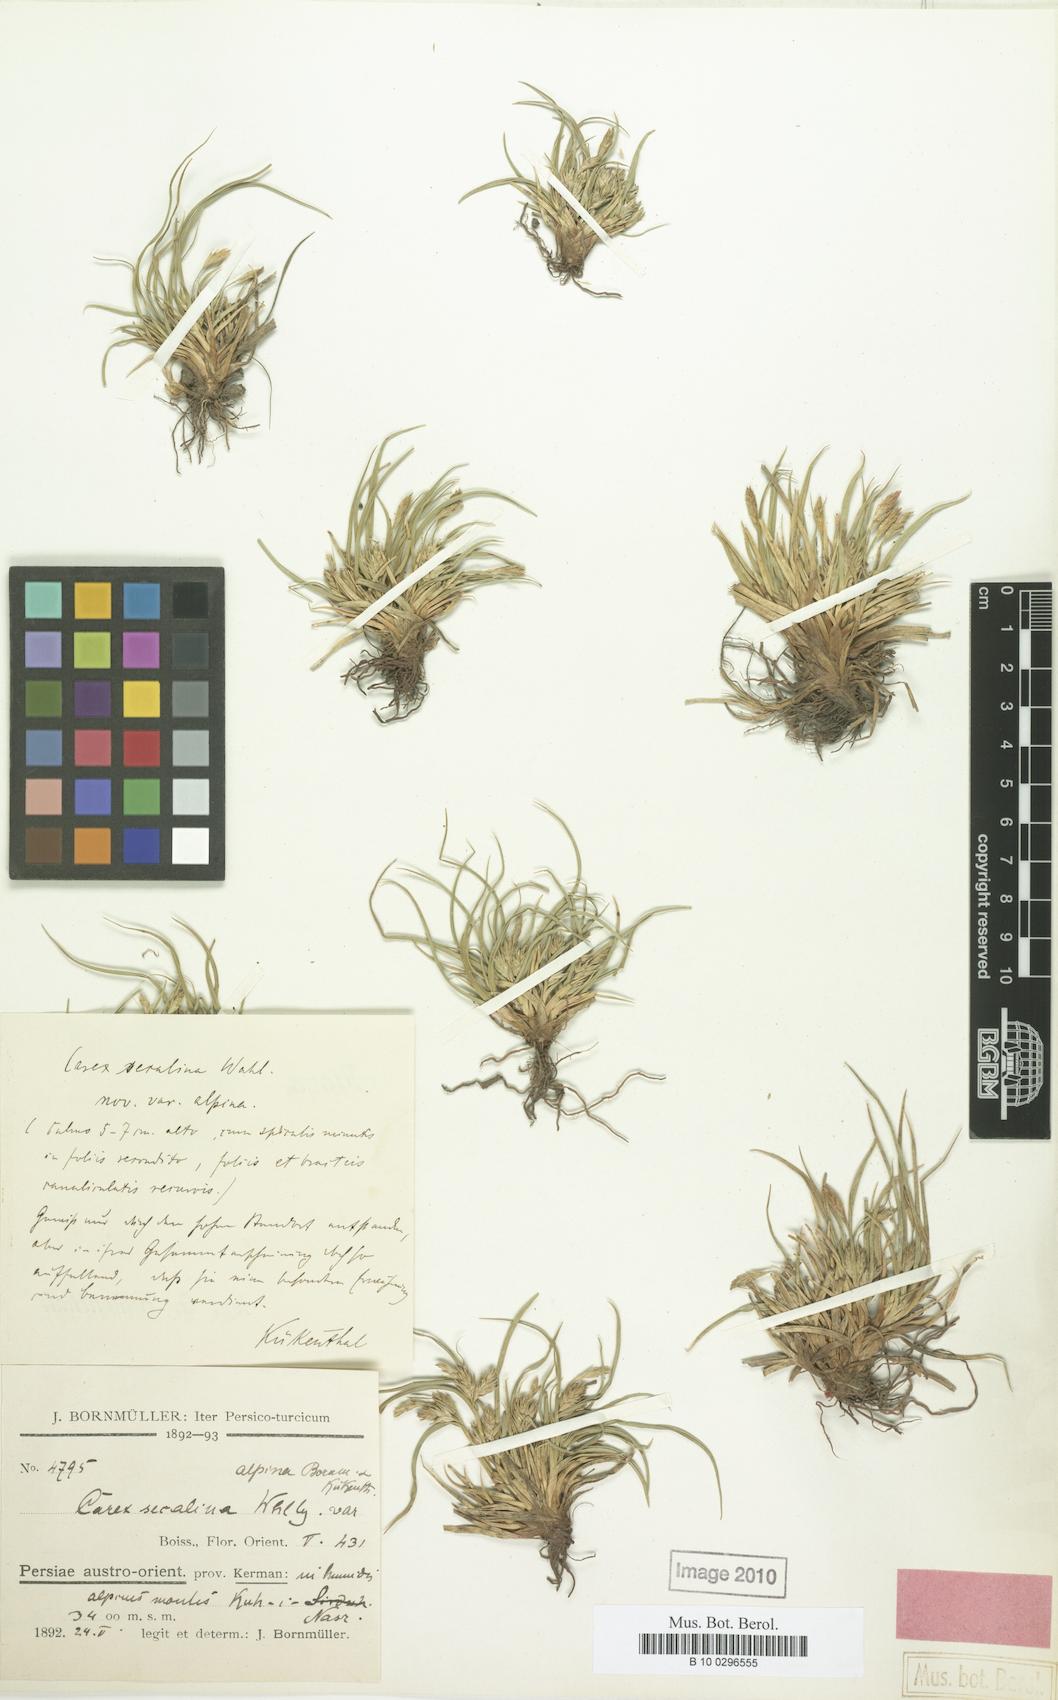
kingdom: Plantae
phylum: Tracheophyta
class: Liliopsida
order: Poales
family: Cyperaceae
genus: Carex
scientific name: Carex secalina
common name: Rye sedge
